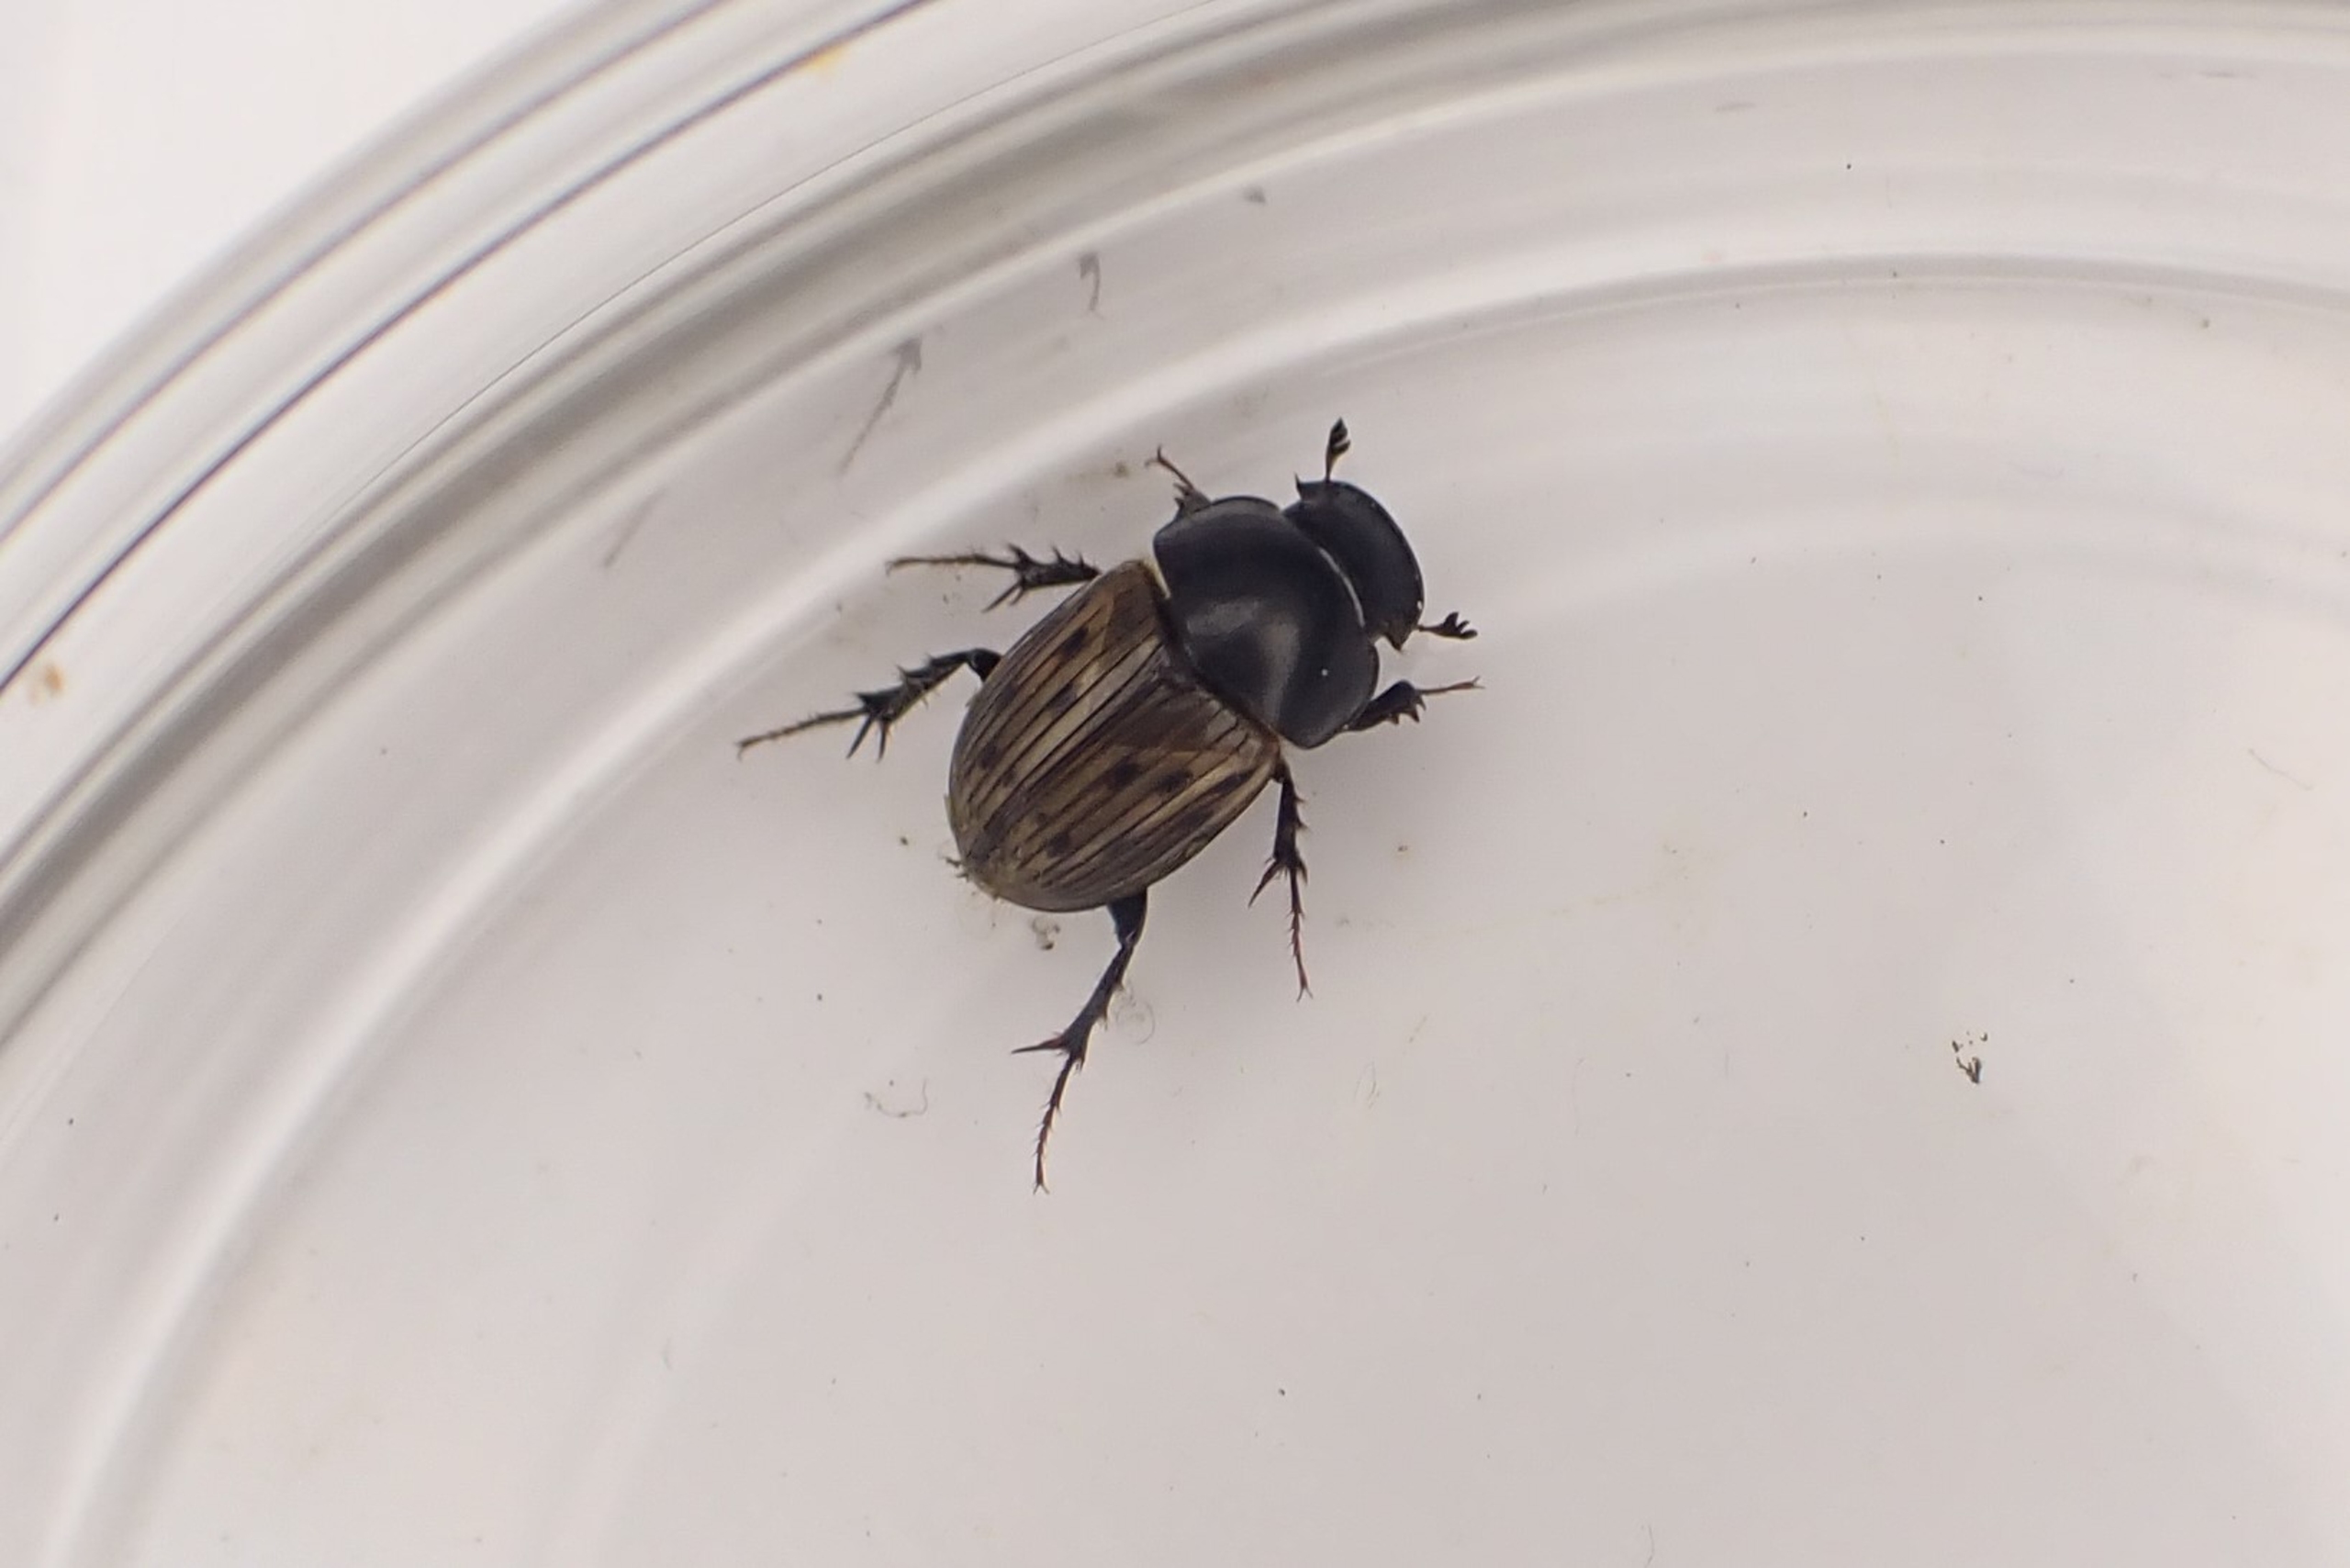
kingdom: Animalia
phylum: Arthropoda
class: Insecta
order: Coleoptera
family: Scarabaeidae
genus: Acrossus
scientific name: Acrossus luridus
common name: Ternet møgbille
